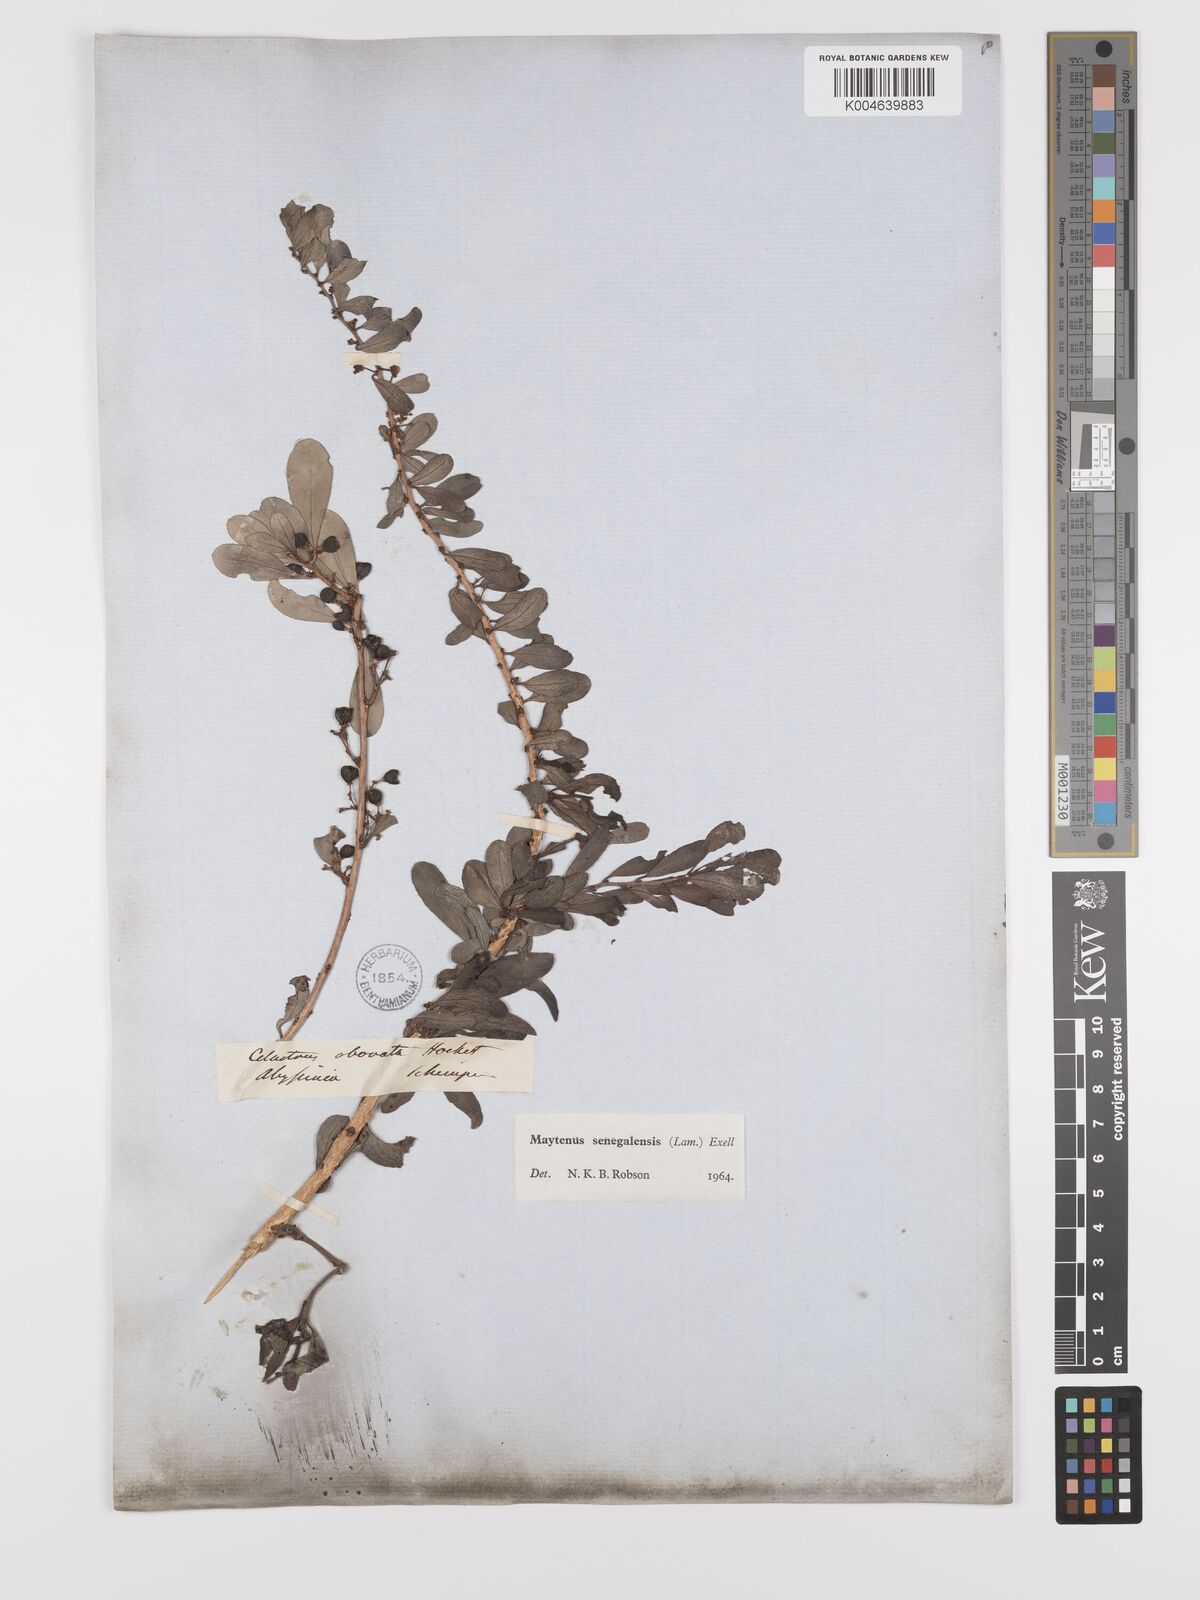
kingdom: Plantae
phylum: Tracheophyta
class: Magnoliopsida
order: Celastrales
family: Celastraceae
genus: Gymnosporia
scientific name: Gymnosporia senegalensis
